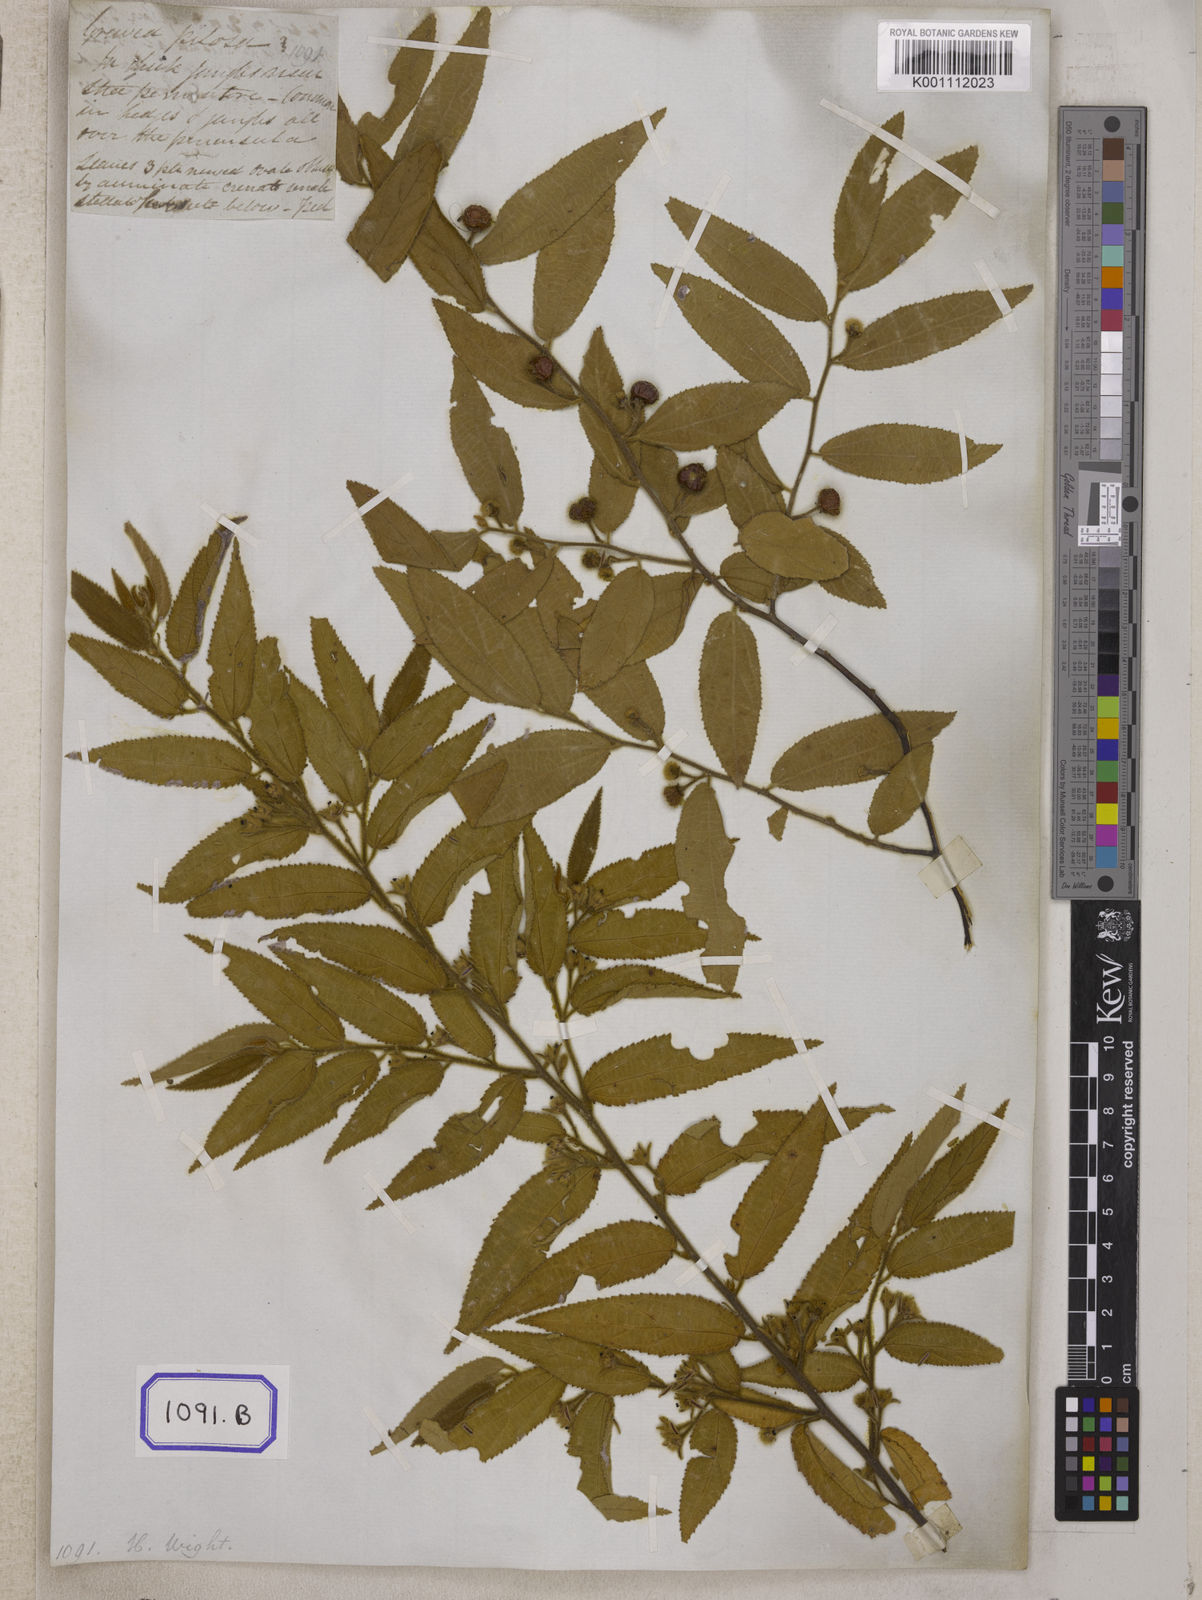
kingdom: Plantae
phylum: Tracheophyta
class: Magnoliopsida
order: Malvales
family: Malvaceae
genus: Grewia
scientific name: Grewia excelsa
